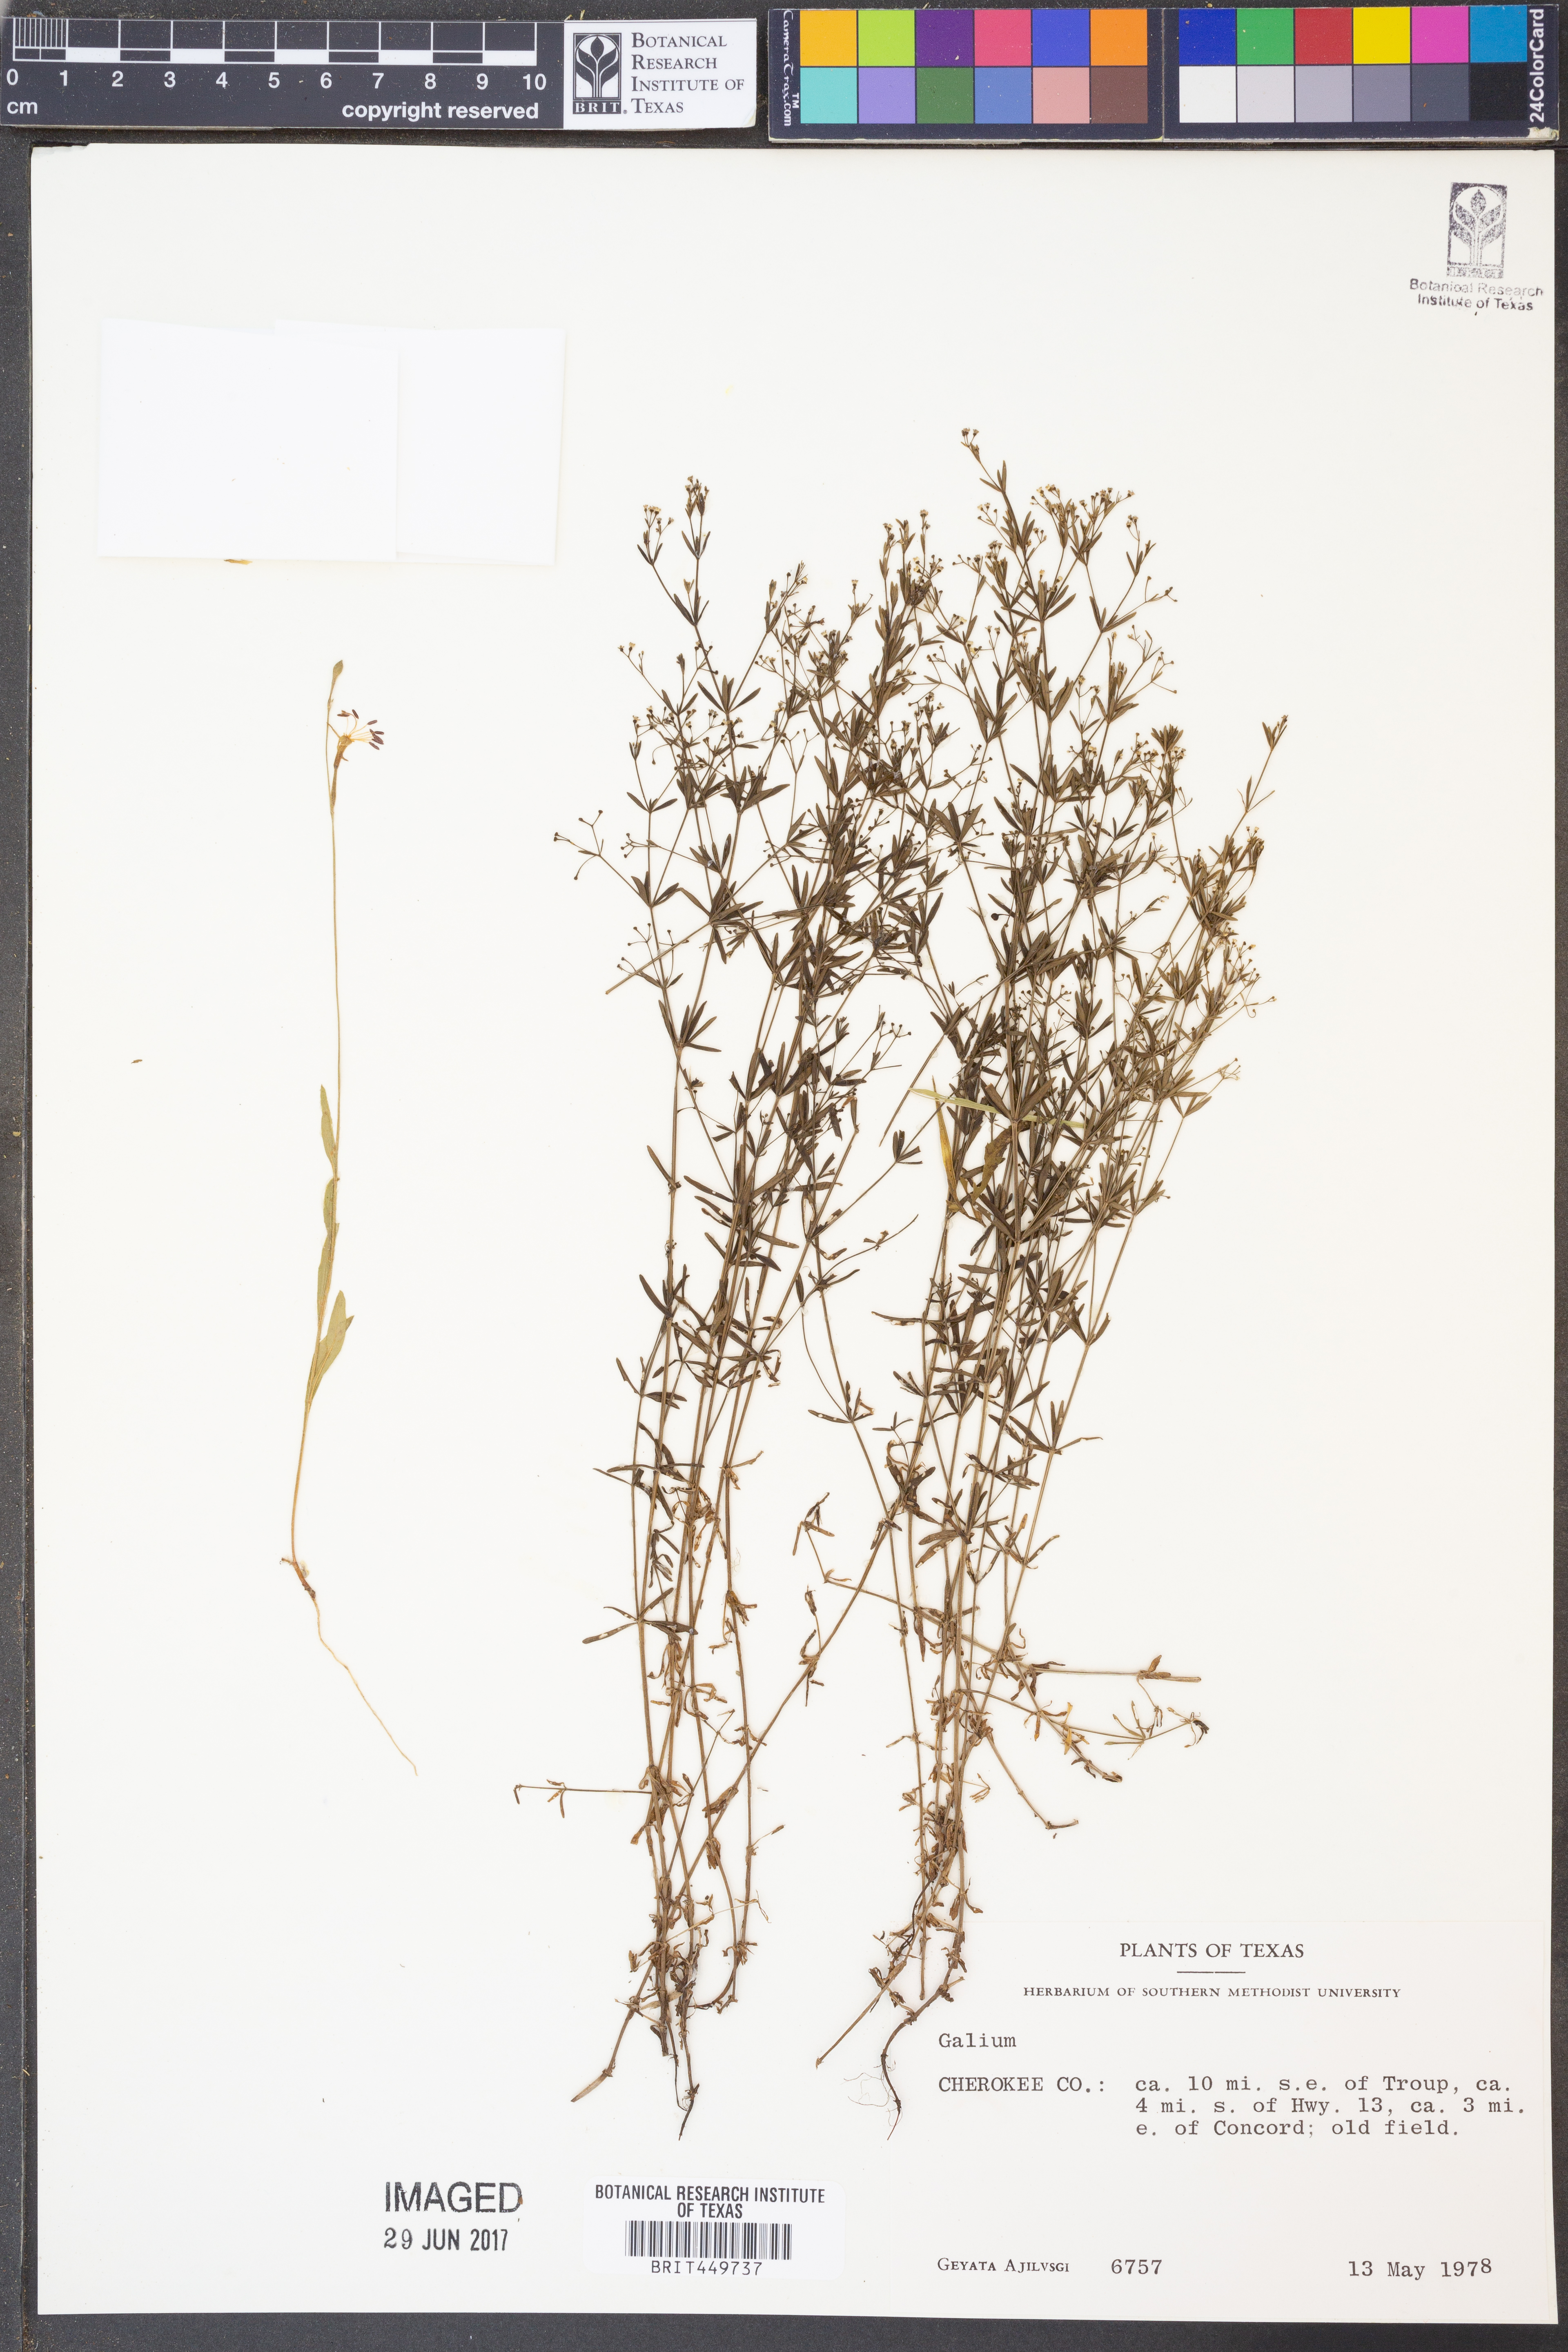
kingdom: Plantae
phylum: Tracheophyta
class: Magnoliopsida
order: Gentianales
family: Rubiaceae
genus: Galium
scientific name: Galium
